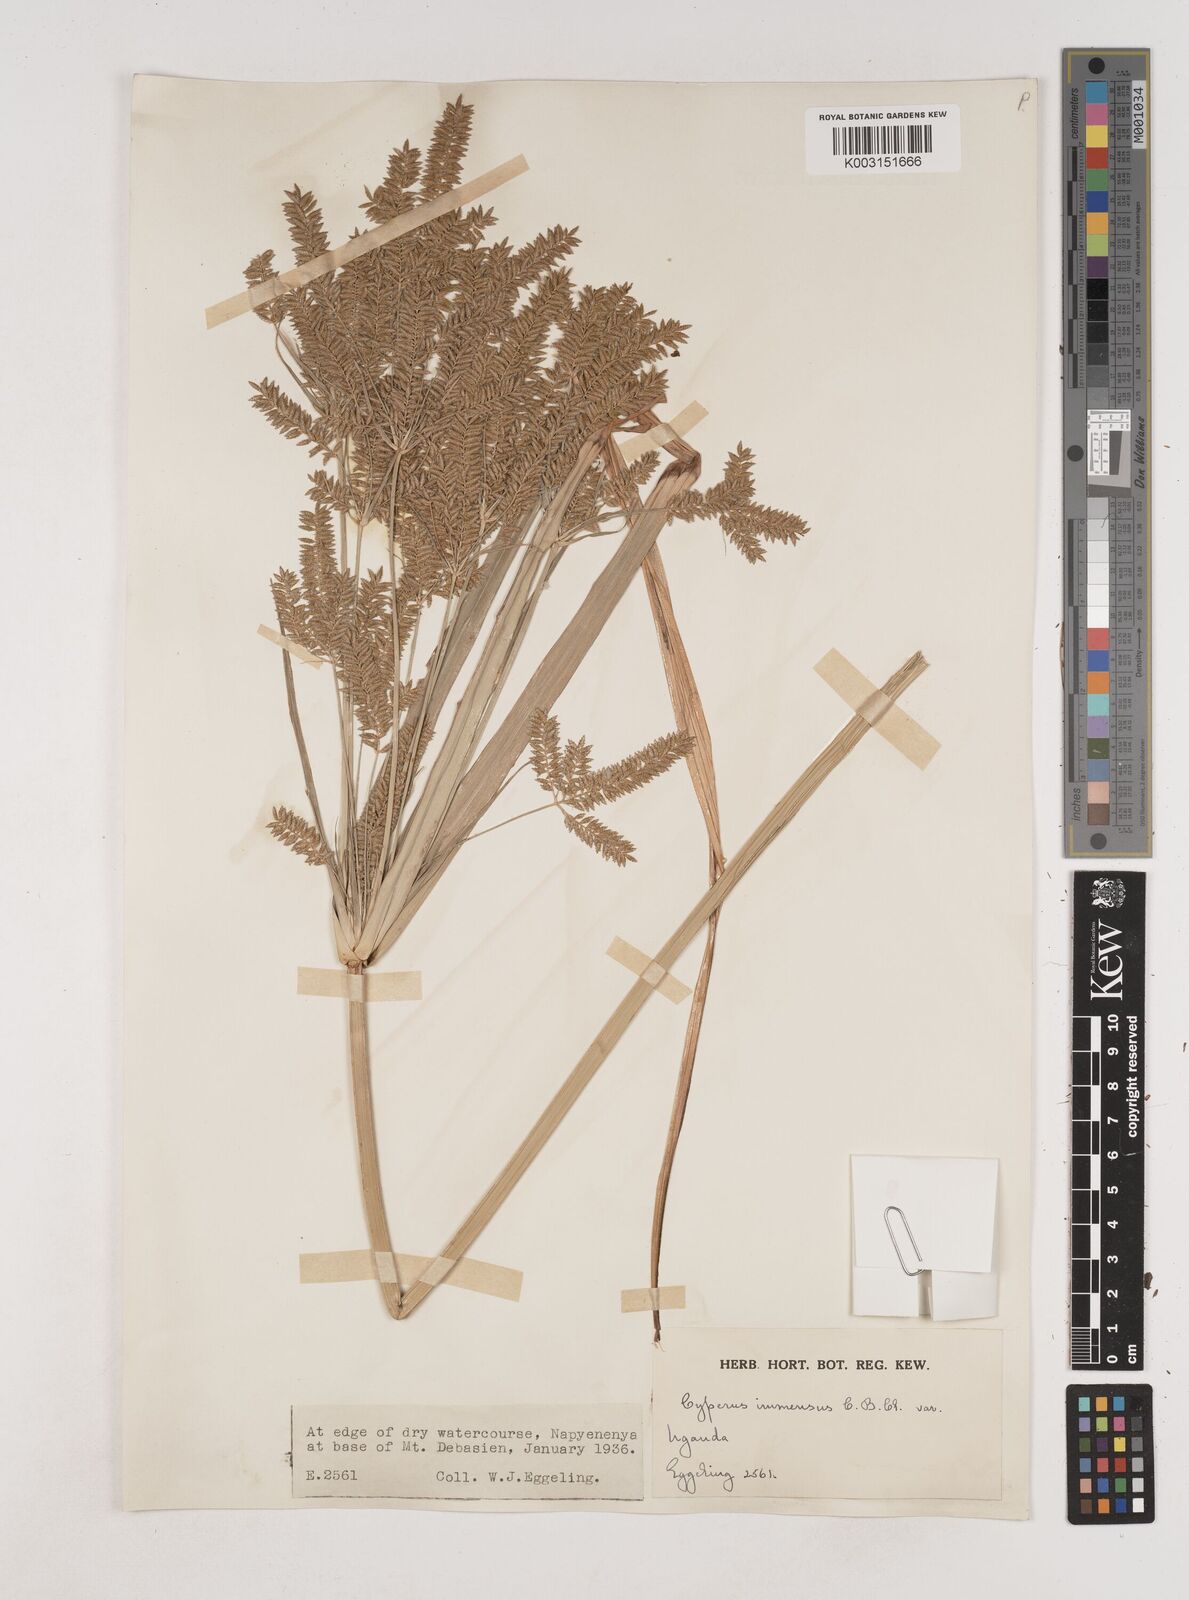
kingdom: Plantae
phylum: Tracheophyta
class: Liliopsida
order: Poales
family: Cyperaceae
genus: Cyperus
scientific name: Cyperus exaltatus
